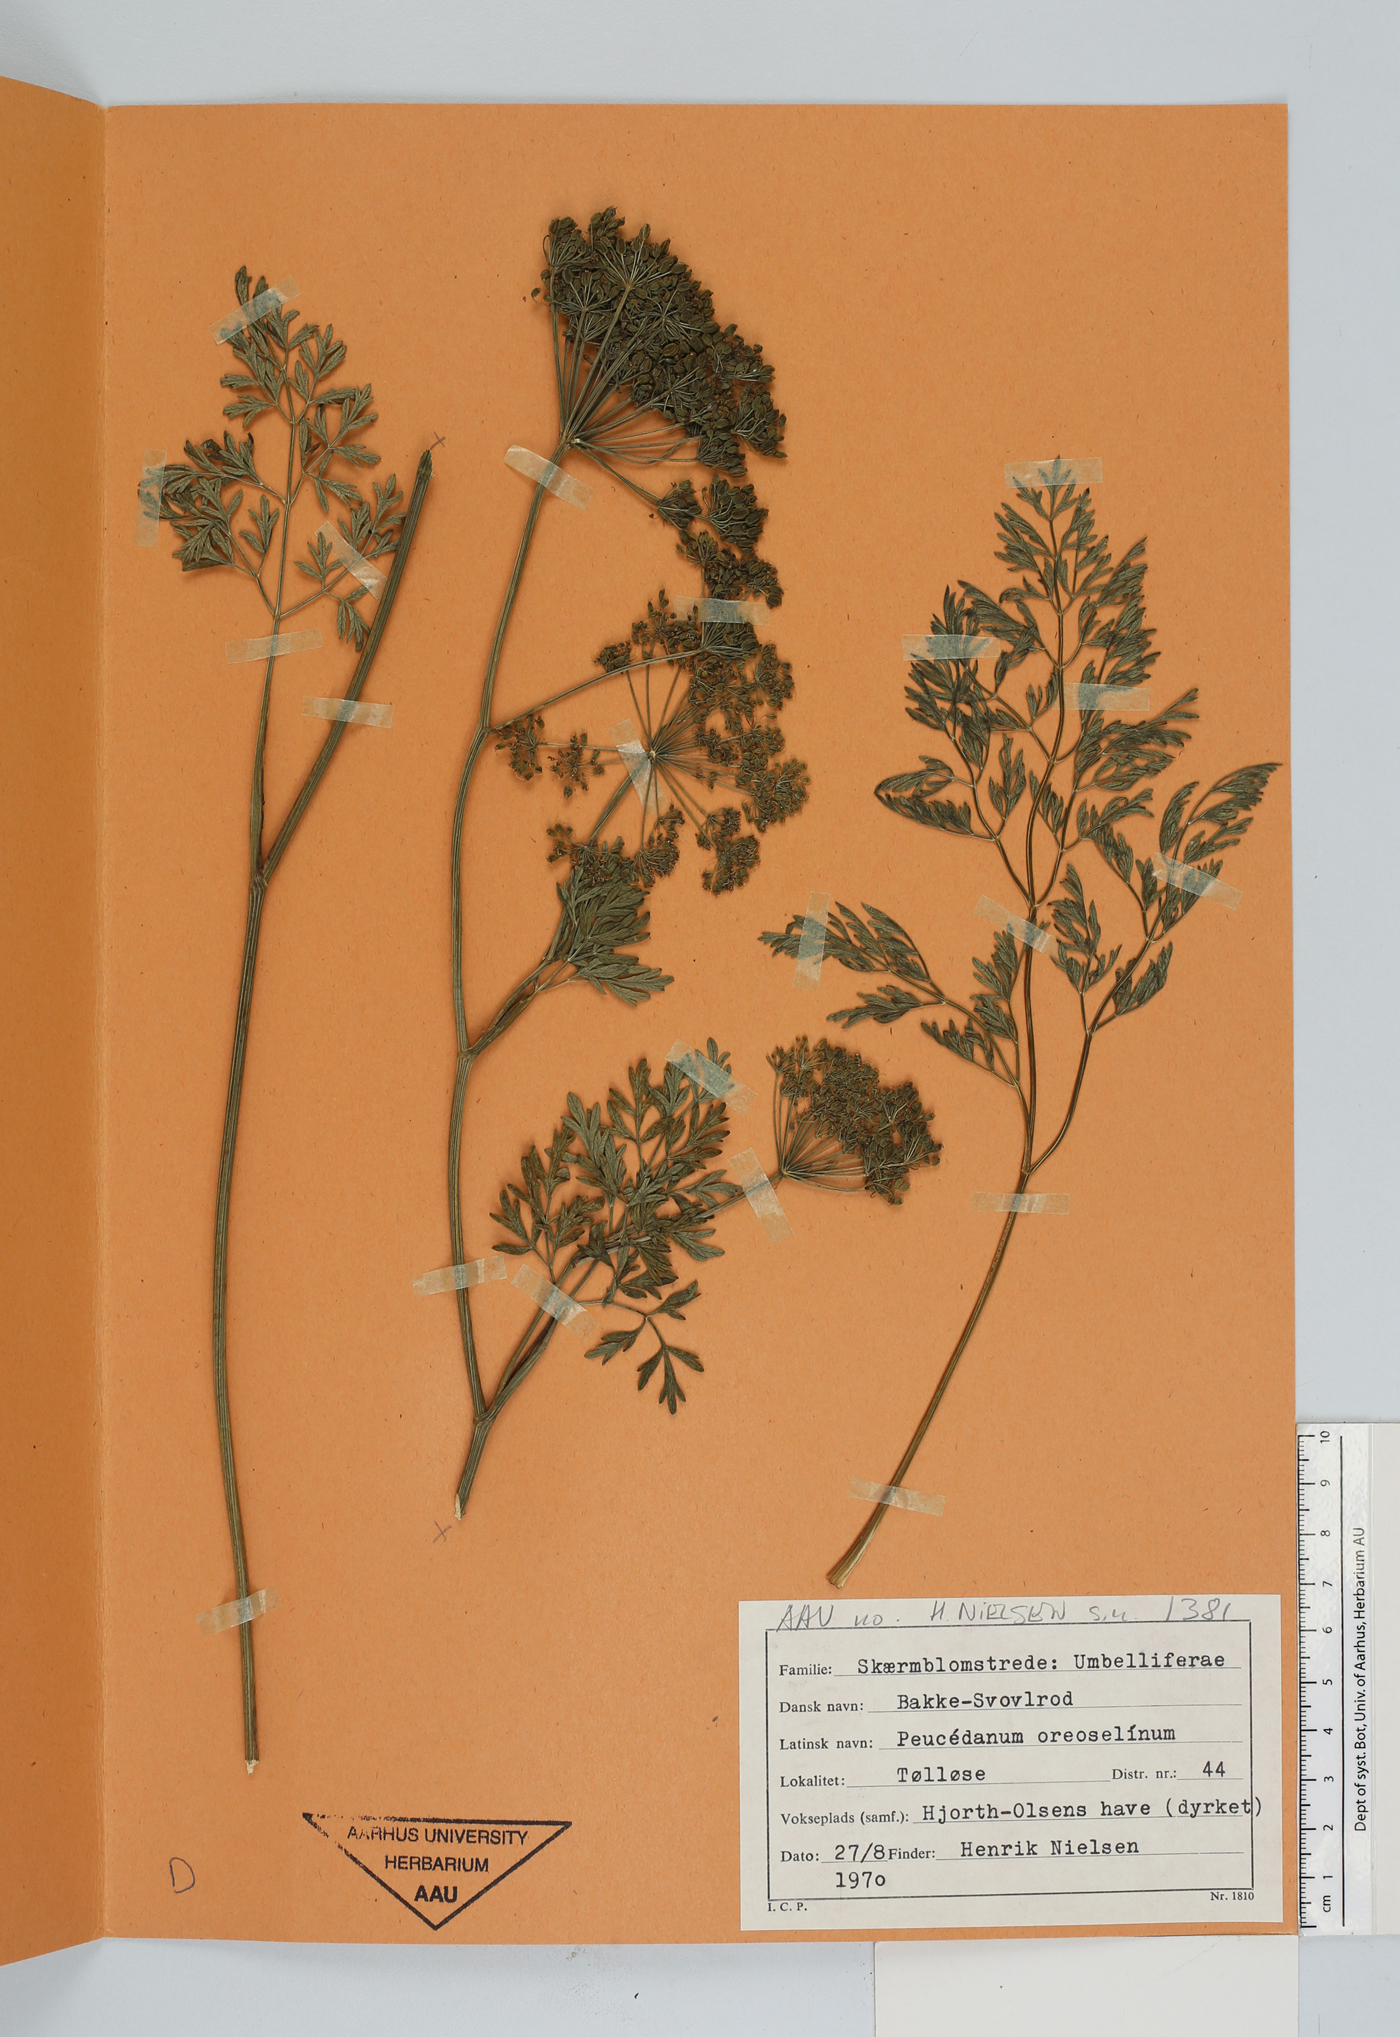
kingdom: Plantae
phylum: Tracheophyta
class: Magnoliopsida
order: Apiales
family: Apiaceae
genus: Oreoselinum
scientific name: Oreoselinum nigrum
